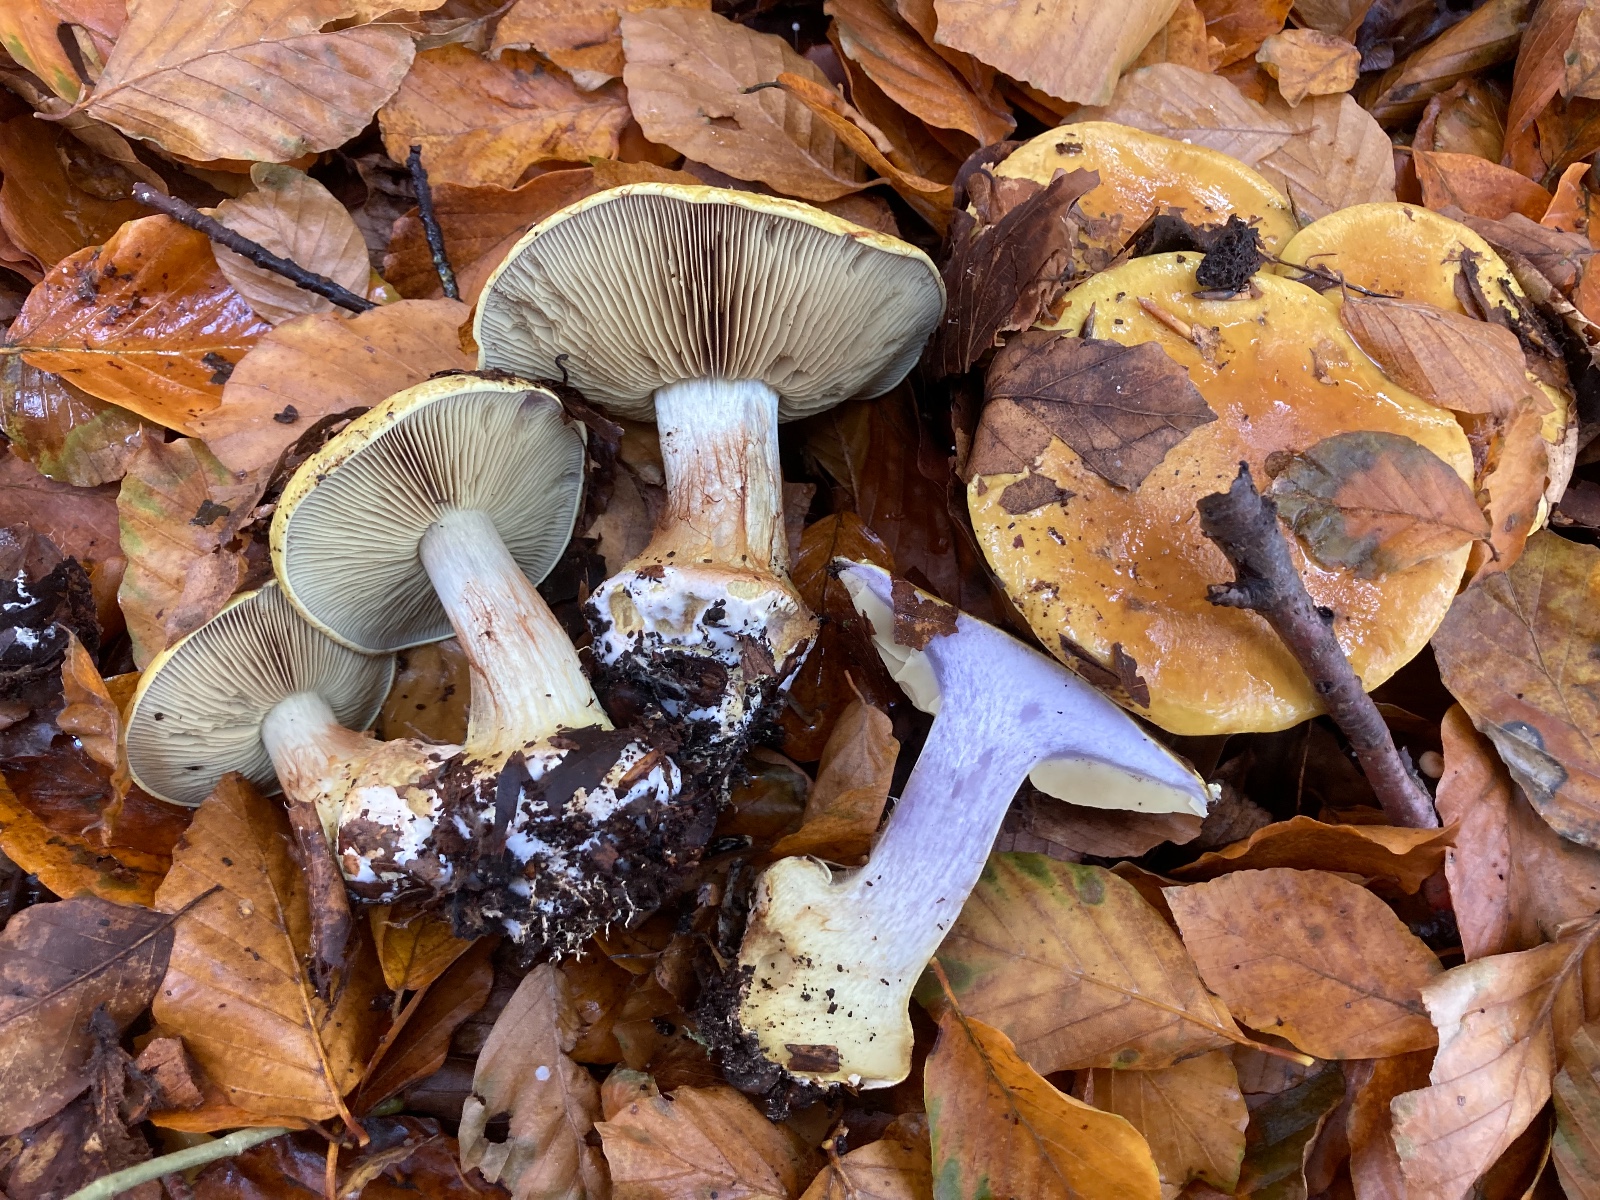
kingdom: Fungi
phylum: Basidiomycota
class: Agaricomycetes
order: Agaricales
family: Cortinariaceae
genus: Cortinarius
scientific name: Cortinarius bergeronii
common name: prægtig slørhat
